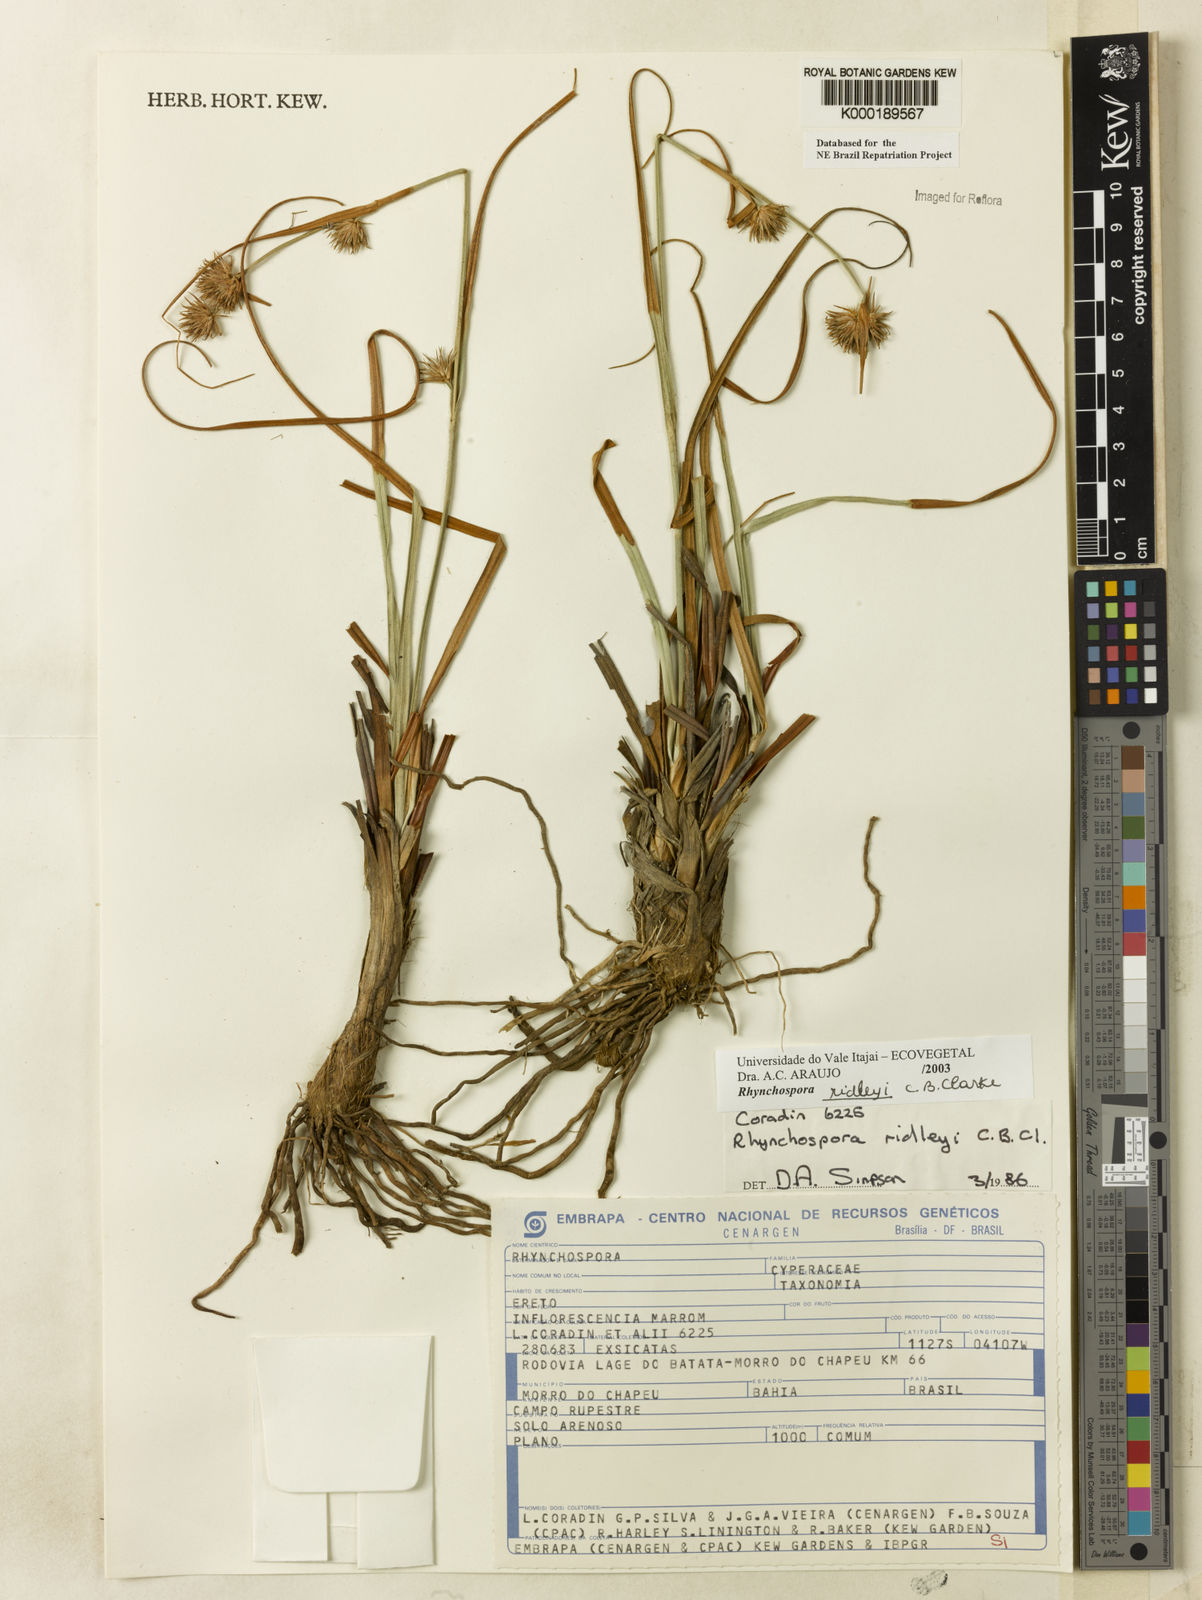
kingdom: Plantae
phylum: Tracheophyta
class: Liliopsida
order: Poales
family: Cyperaceae
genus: Rhynchospora
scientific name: Rhynchospora ridleyi
